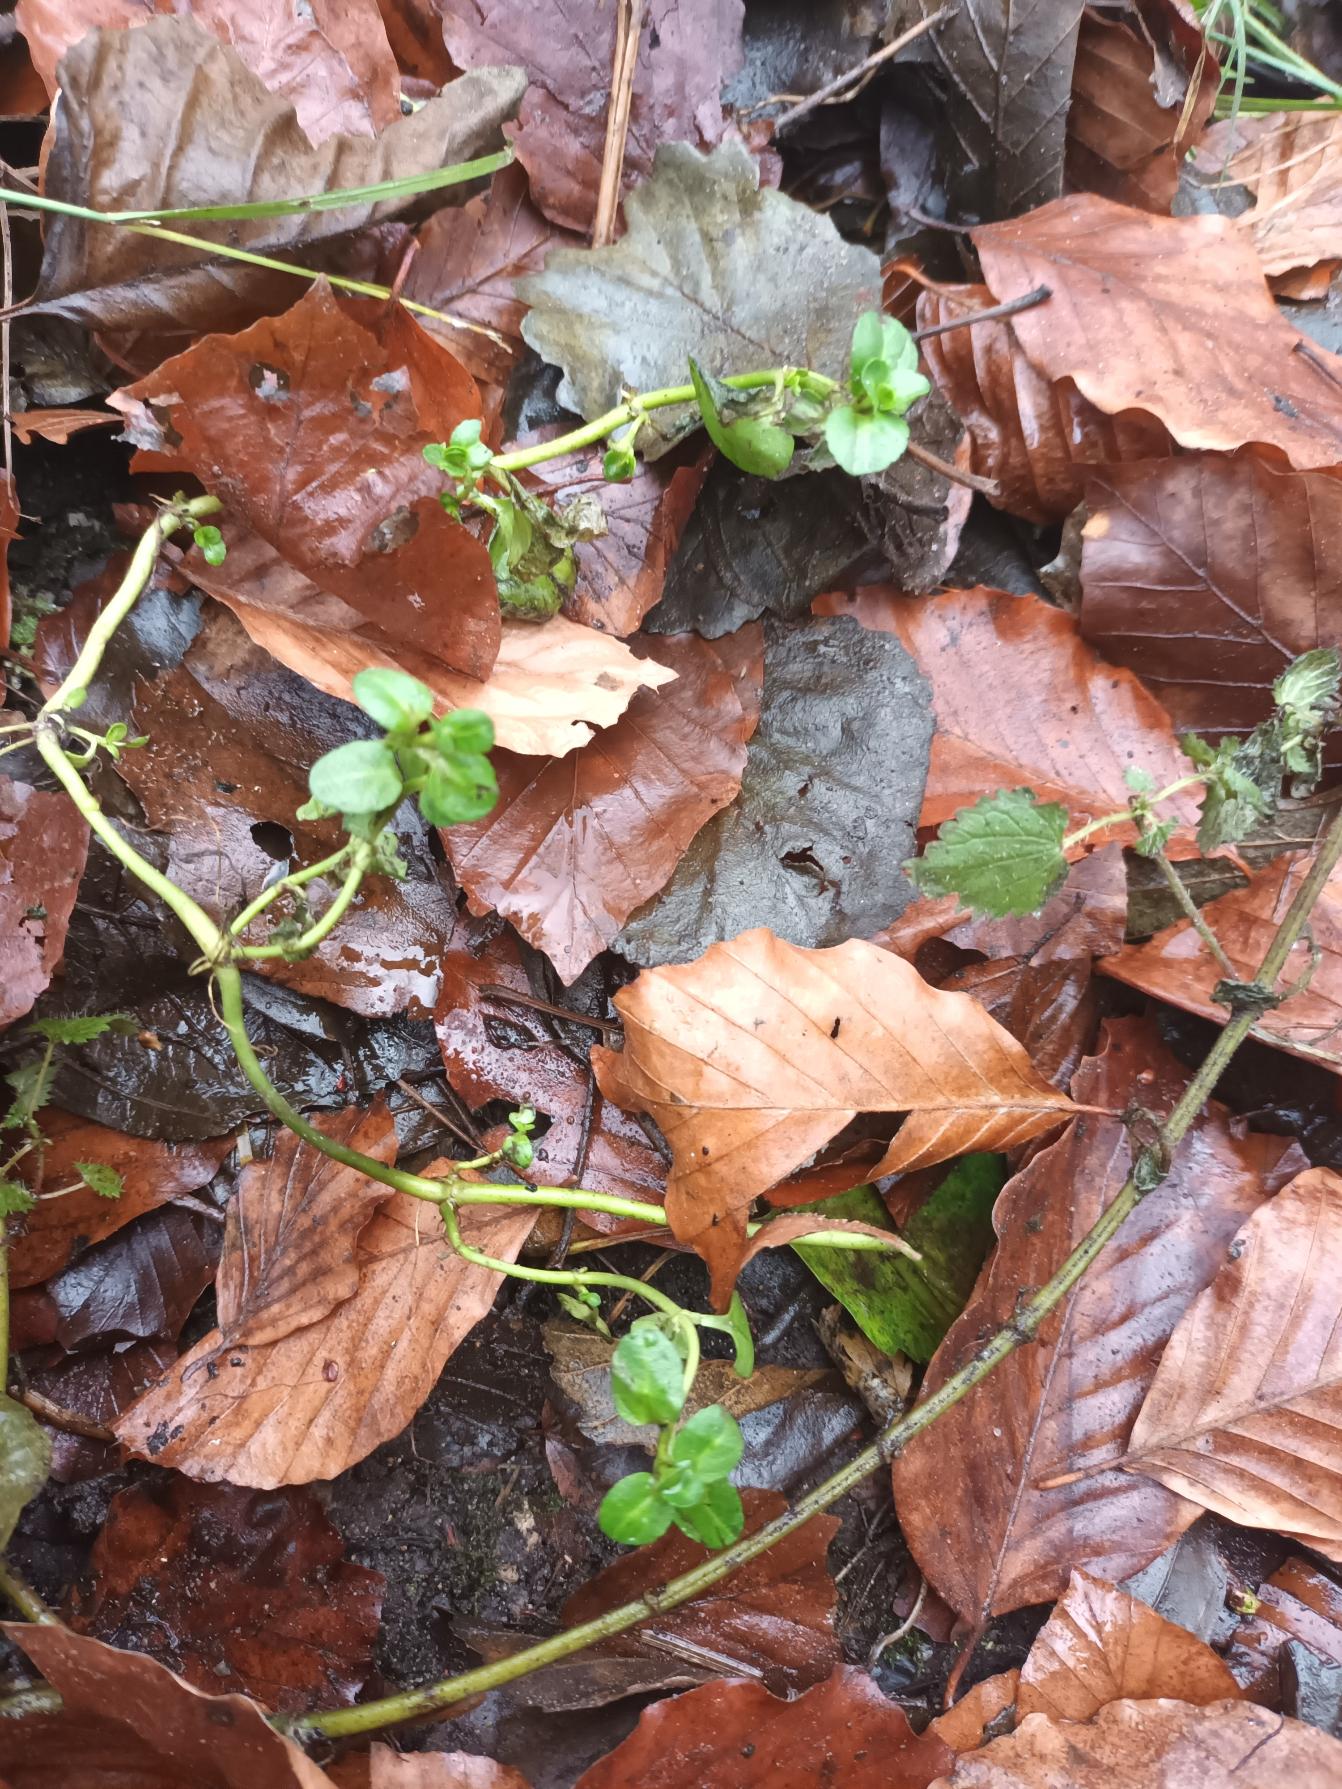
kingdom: Plantae
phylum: Tracheophyta
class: Magnoliopsida
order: Lamiales
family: Plantaginaceae
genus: Veronica
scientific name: Veronica beccabunga
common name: Tykbladet ærenpris
